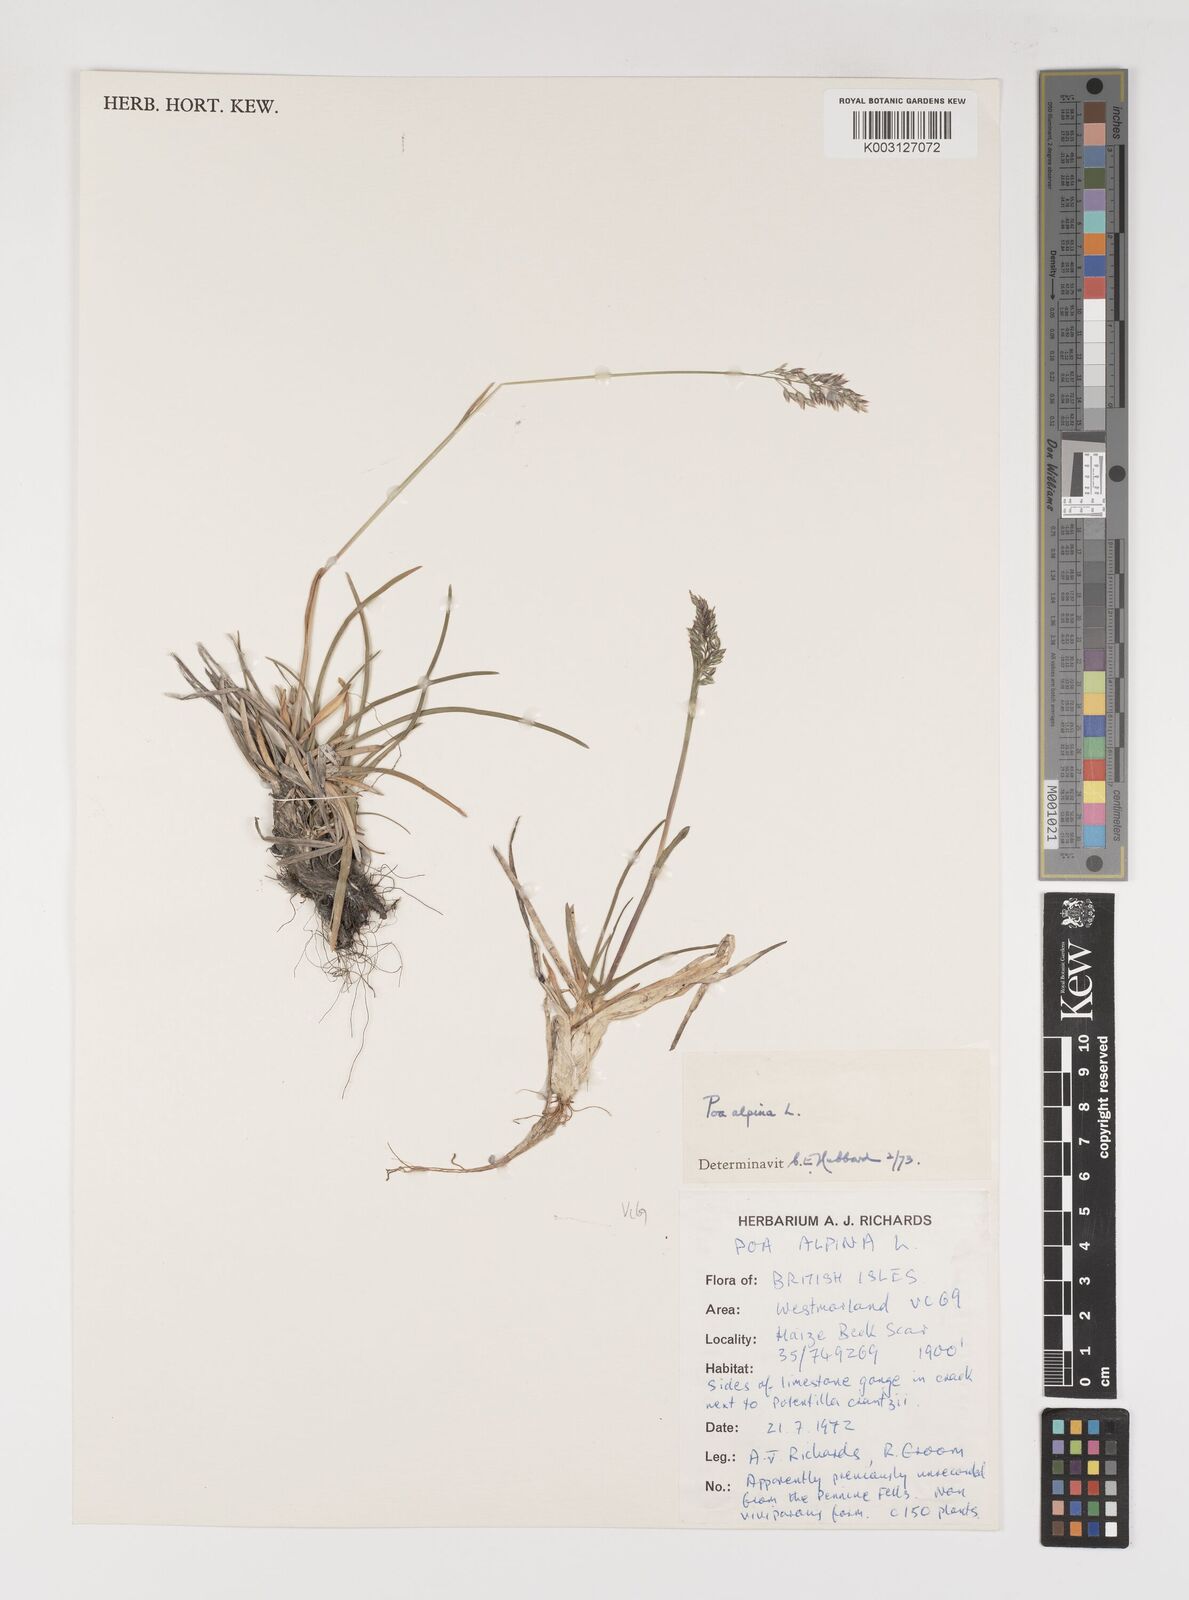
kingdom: Plantae
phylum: Tracheophyta
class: Liliopsida
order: Poales
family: Poaceae
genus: Poa
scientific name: Poa alpina
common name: Alpine bluegrass
